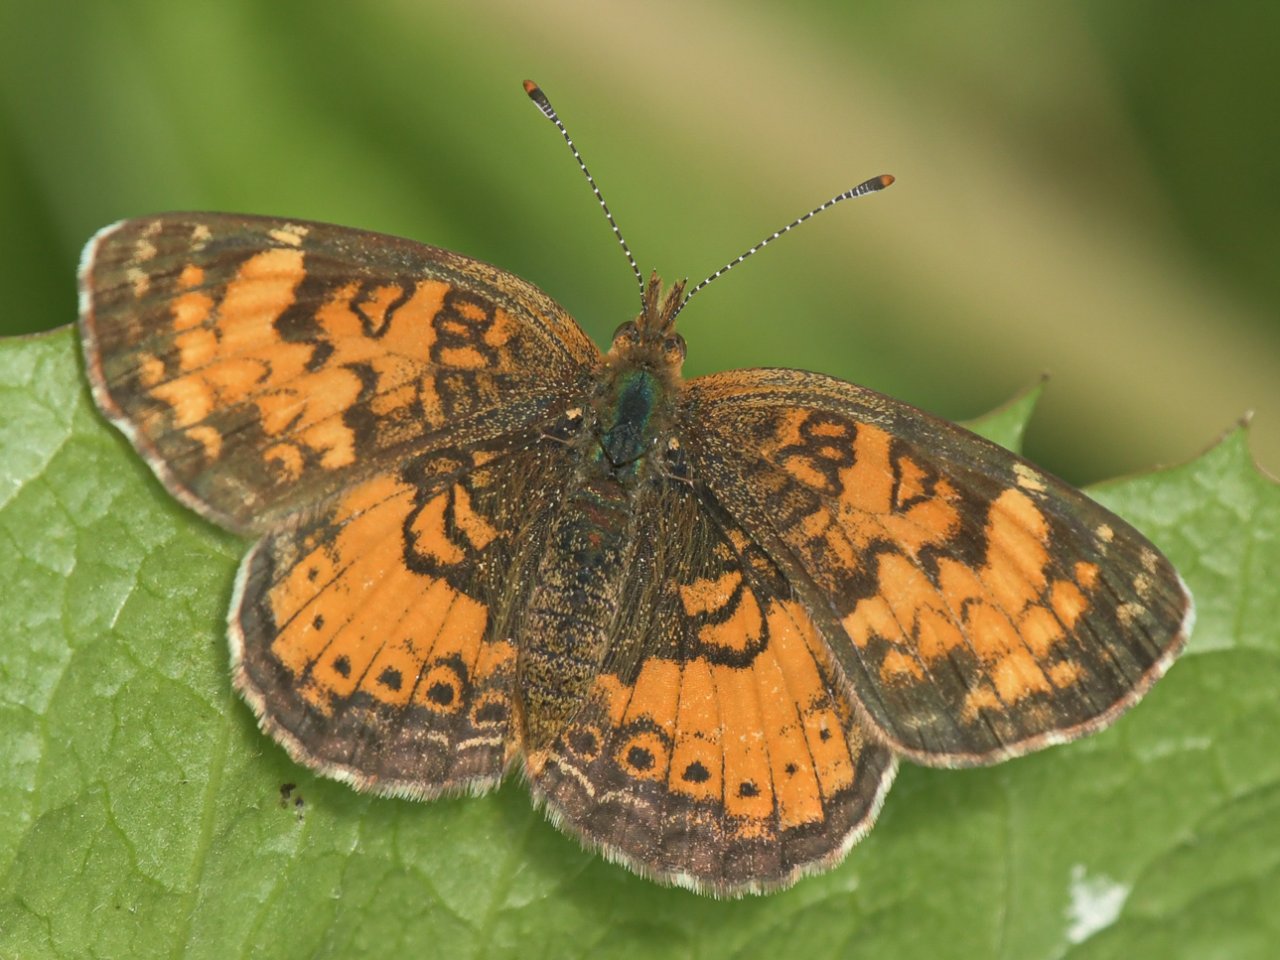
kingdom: Animalia
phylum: Arthropoda
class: Insecta
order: Lepidoptera
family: Nymphalidae
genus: Phyciodes
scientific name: Phyciodes tharos
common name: Northern Crescent
